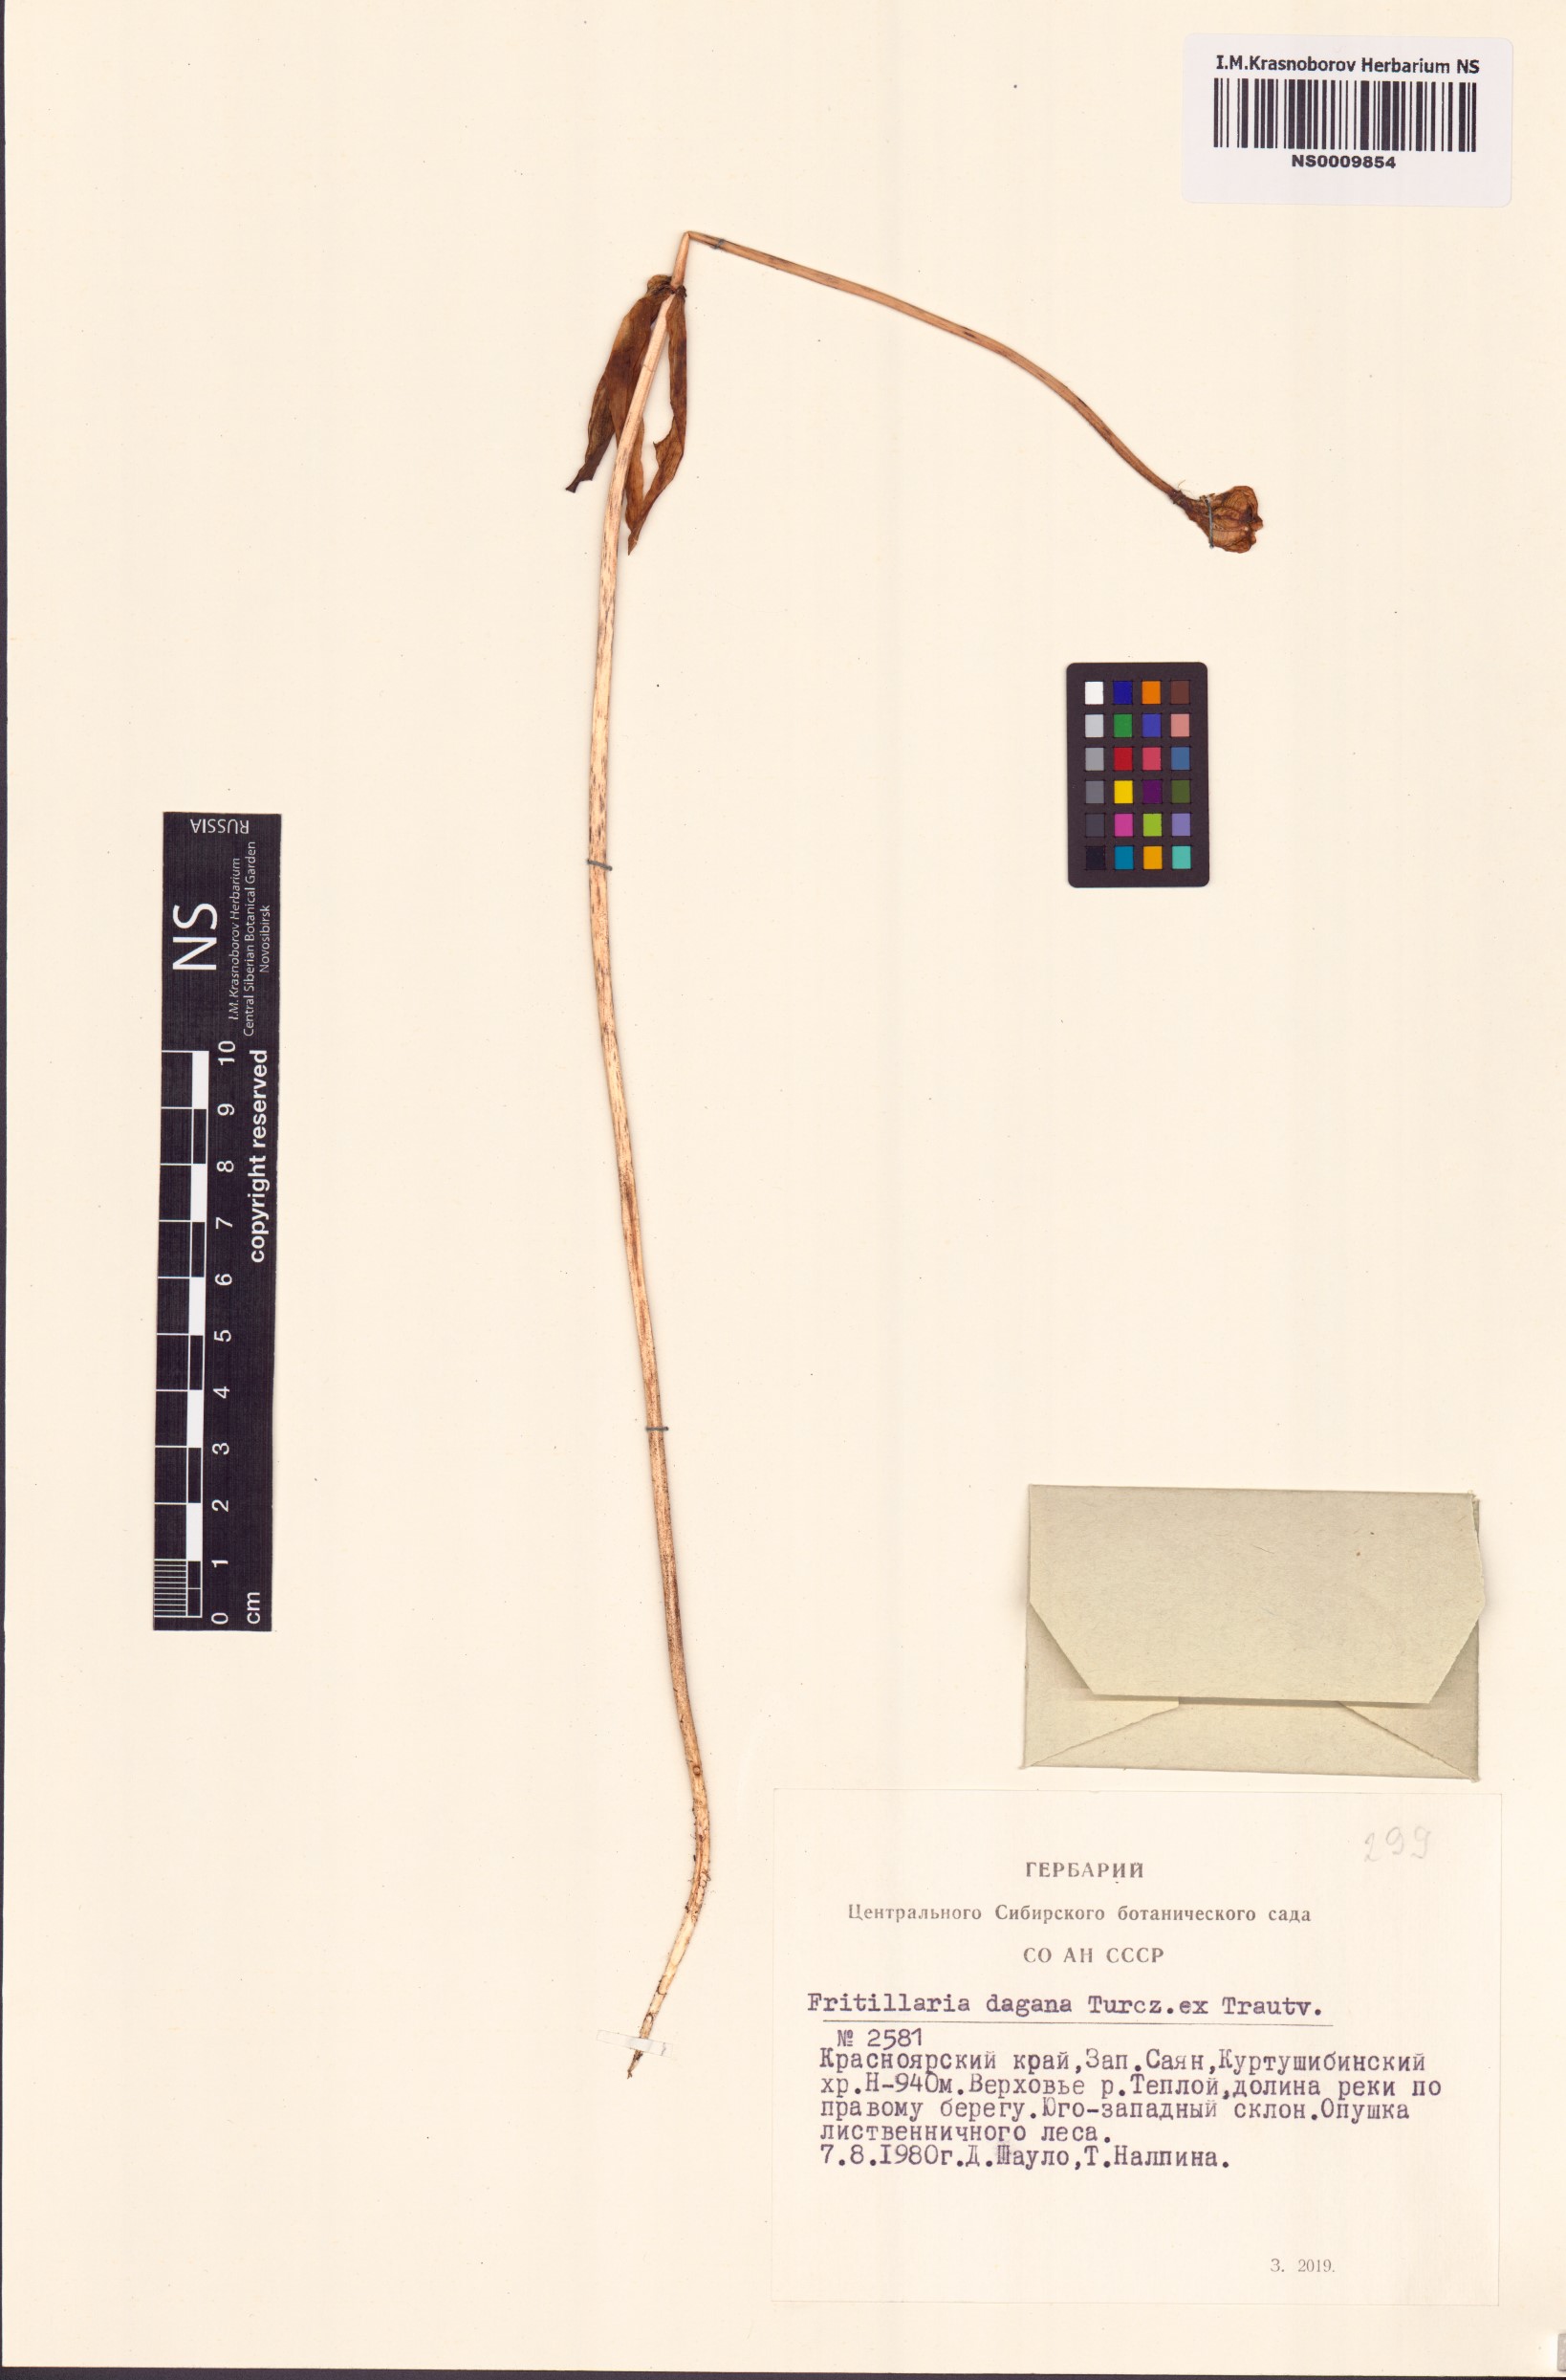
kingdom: Plantae
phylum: Tracheophyta
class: Liliopsida
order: Liliales
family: Liliaceae
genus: Fritillaria
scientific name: Fritillaria dagana
